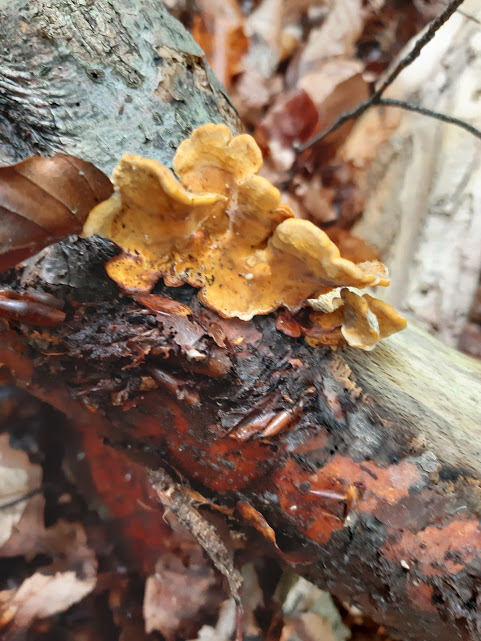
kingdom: Fungi
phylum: Basidiomycota
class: Agaricomycetes
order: Russulales
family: Stereaceae
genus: Stereum
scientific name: Stereum hirsutum
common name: håret lædersvamp
